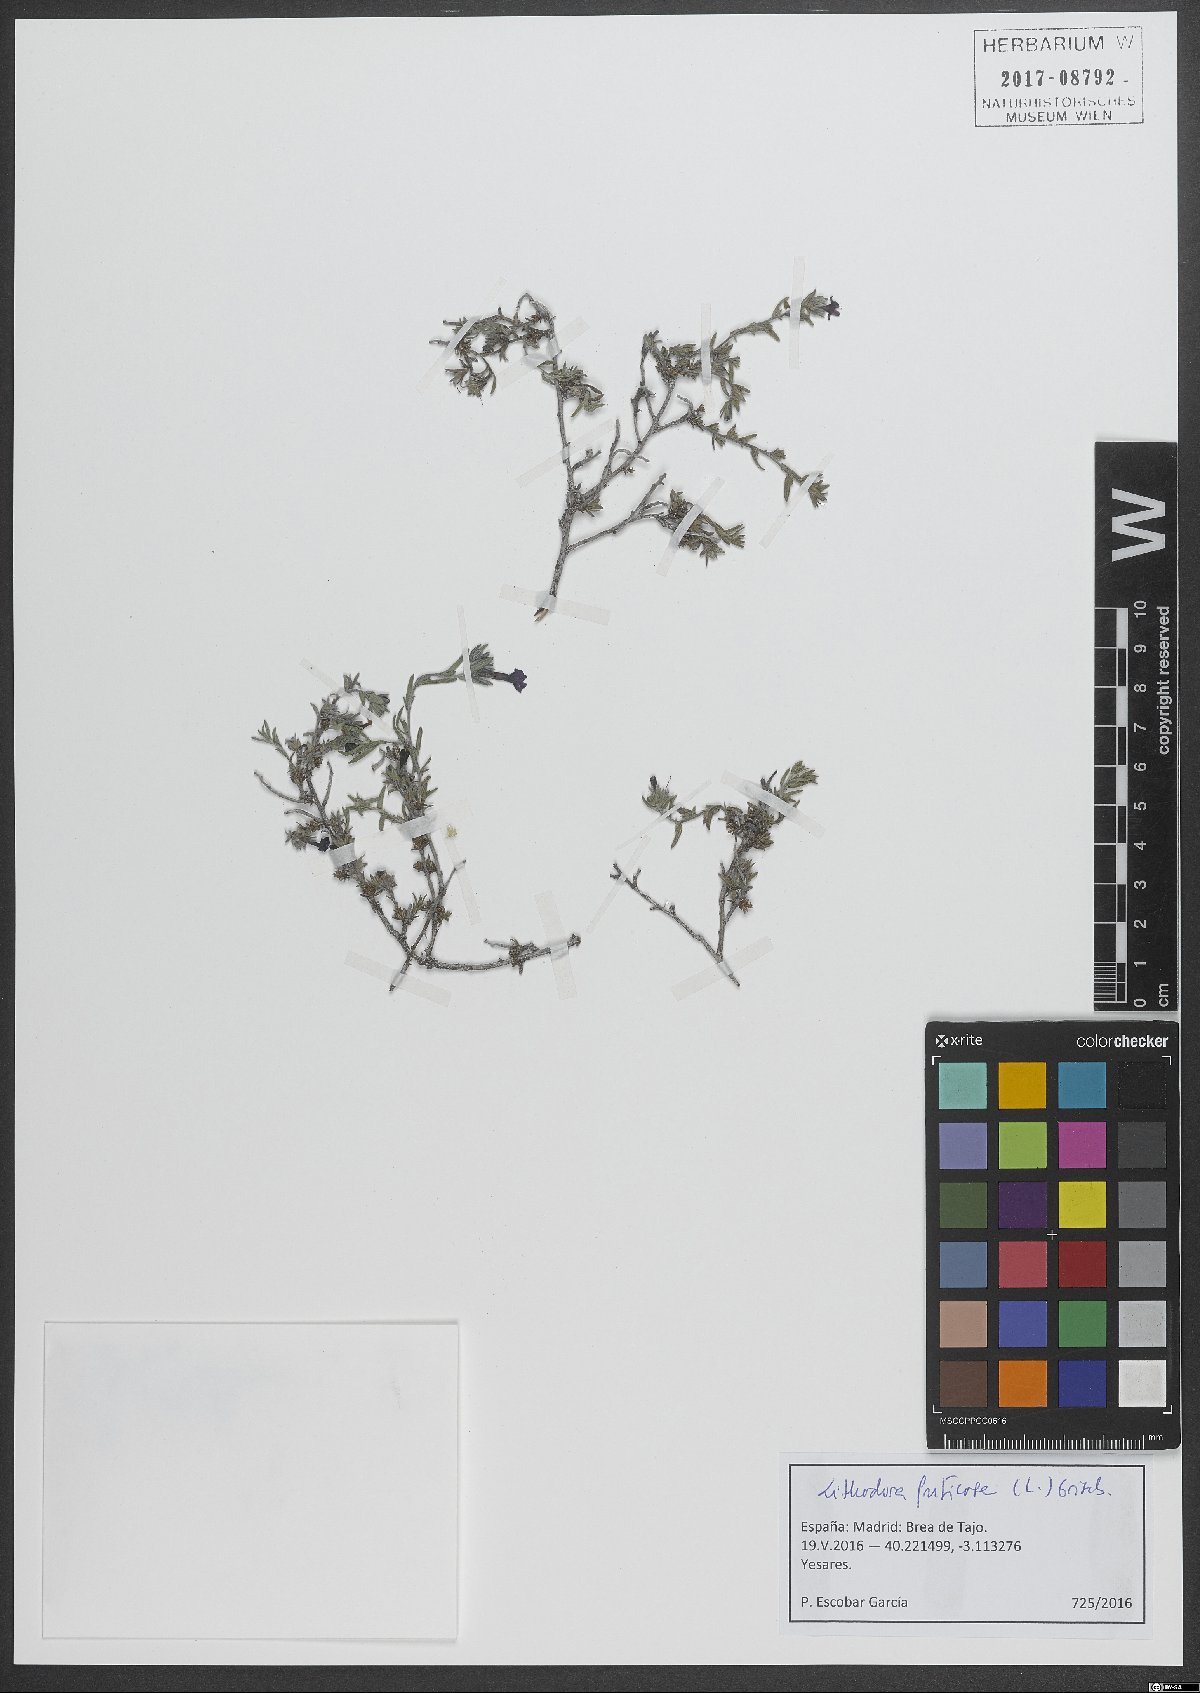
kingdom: Plantae
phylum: Tracheophyta
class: Magnoliopsida
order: Boraginales
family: Boraginaceae
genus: Lithodora
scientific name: Lithodora fruticosa
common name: Shrubby gromwell
